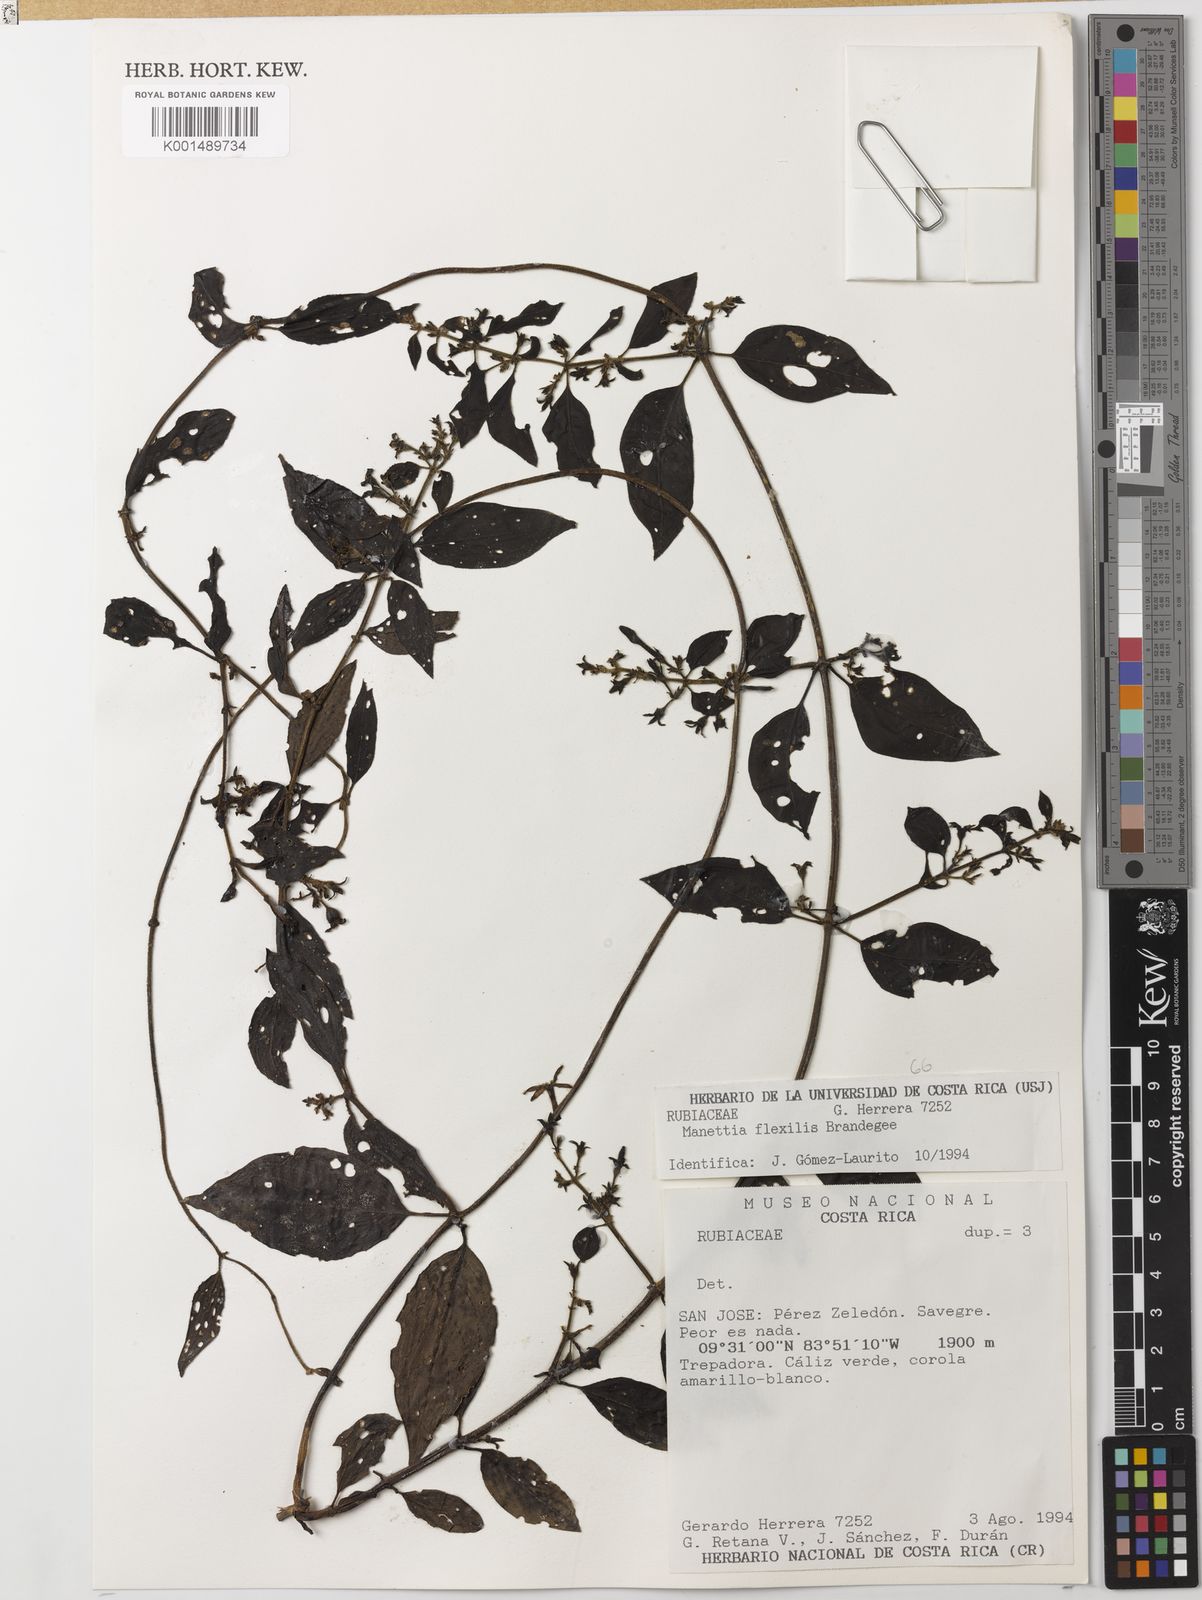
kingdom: Plantae
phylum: Tracheophyta
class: Magnoliopsida
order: Gentianales
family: Rubiaceae
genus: Manettia
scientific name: Manettia flexilis
